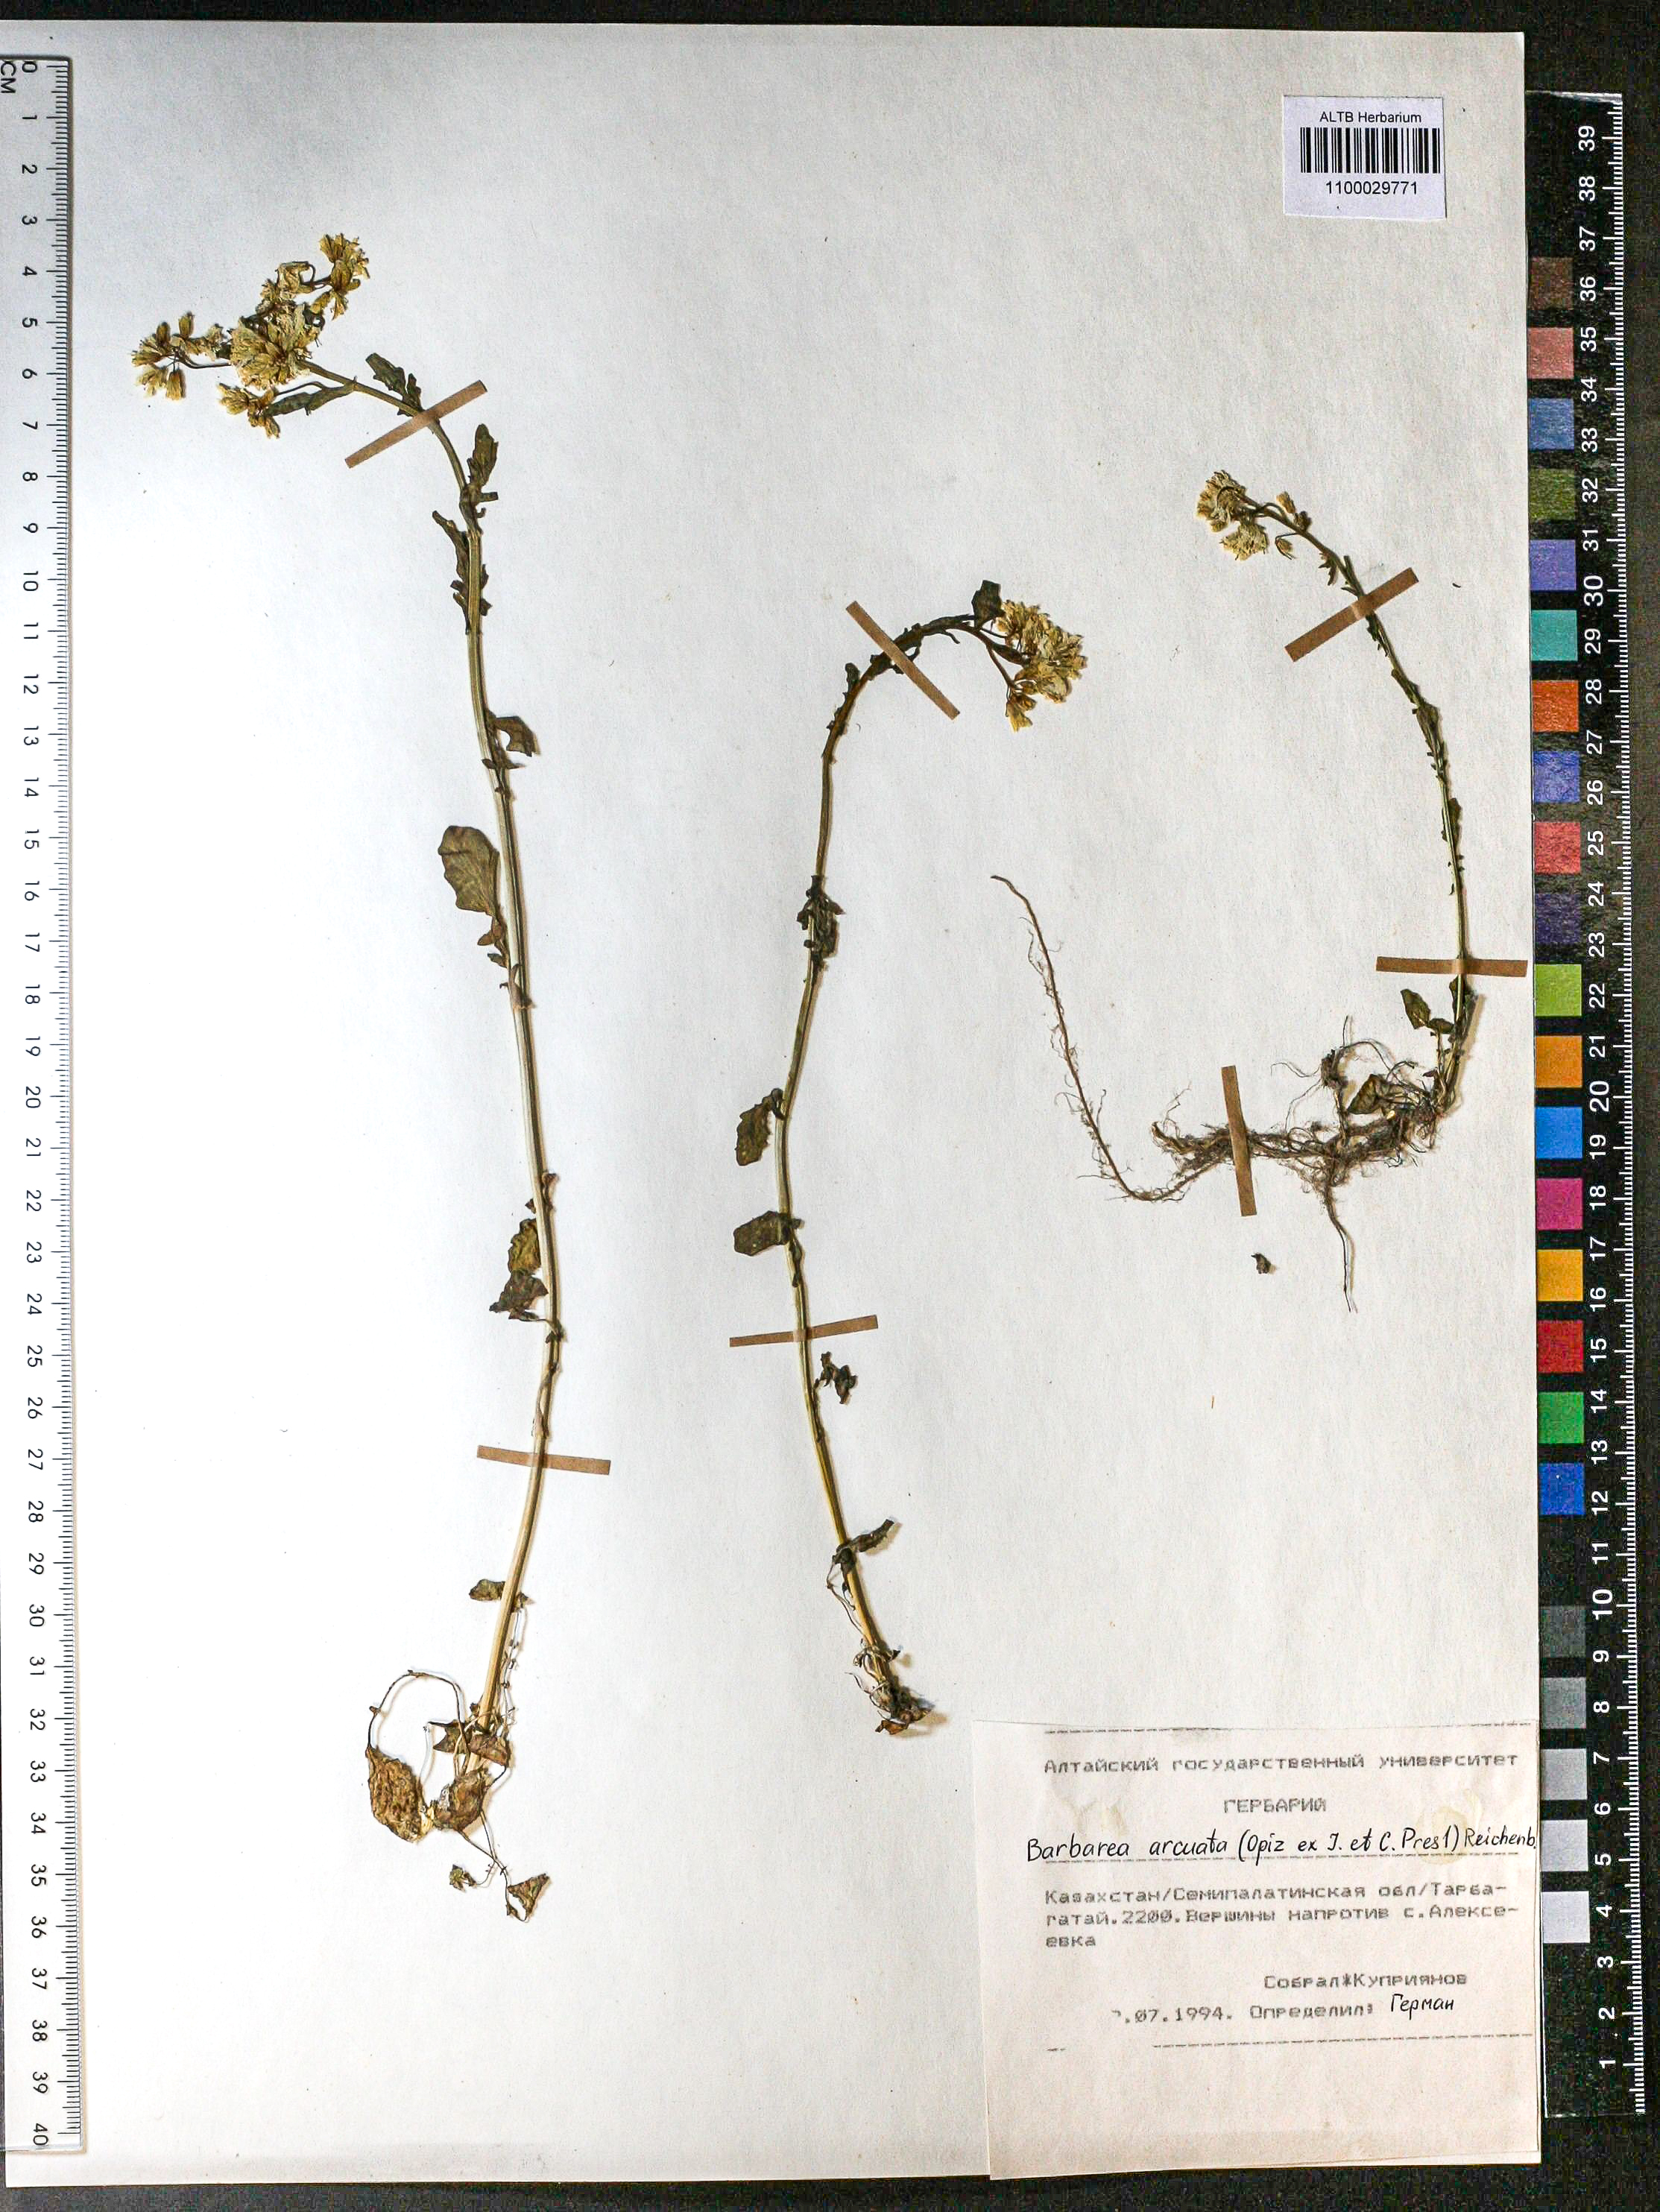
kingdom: Plantae
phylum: Tracheophyta
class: Magnoliopsida
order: Brassicales
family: Brassicaceae
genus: Barbarea
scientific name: Barbarea vulgaris
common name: Cressy-greens
